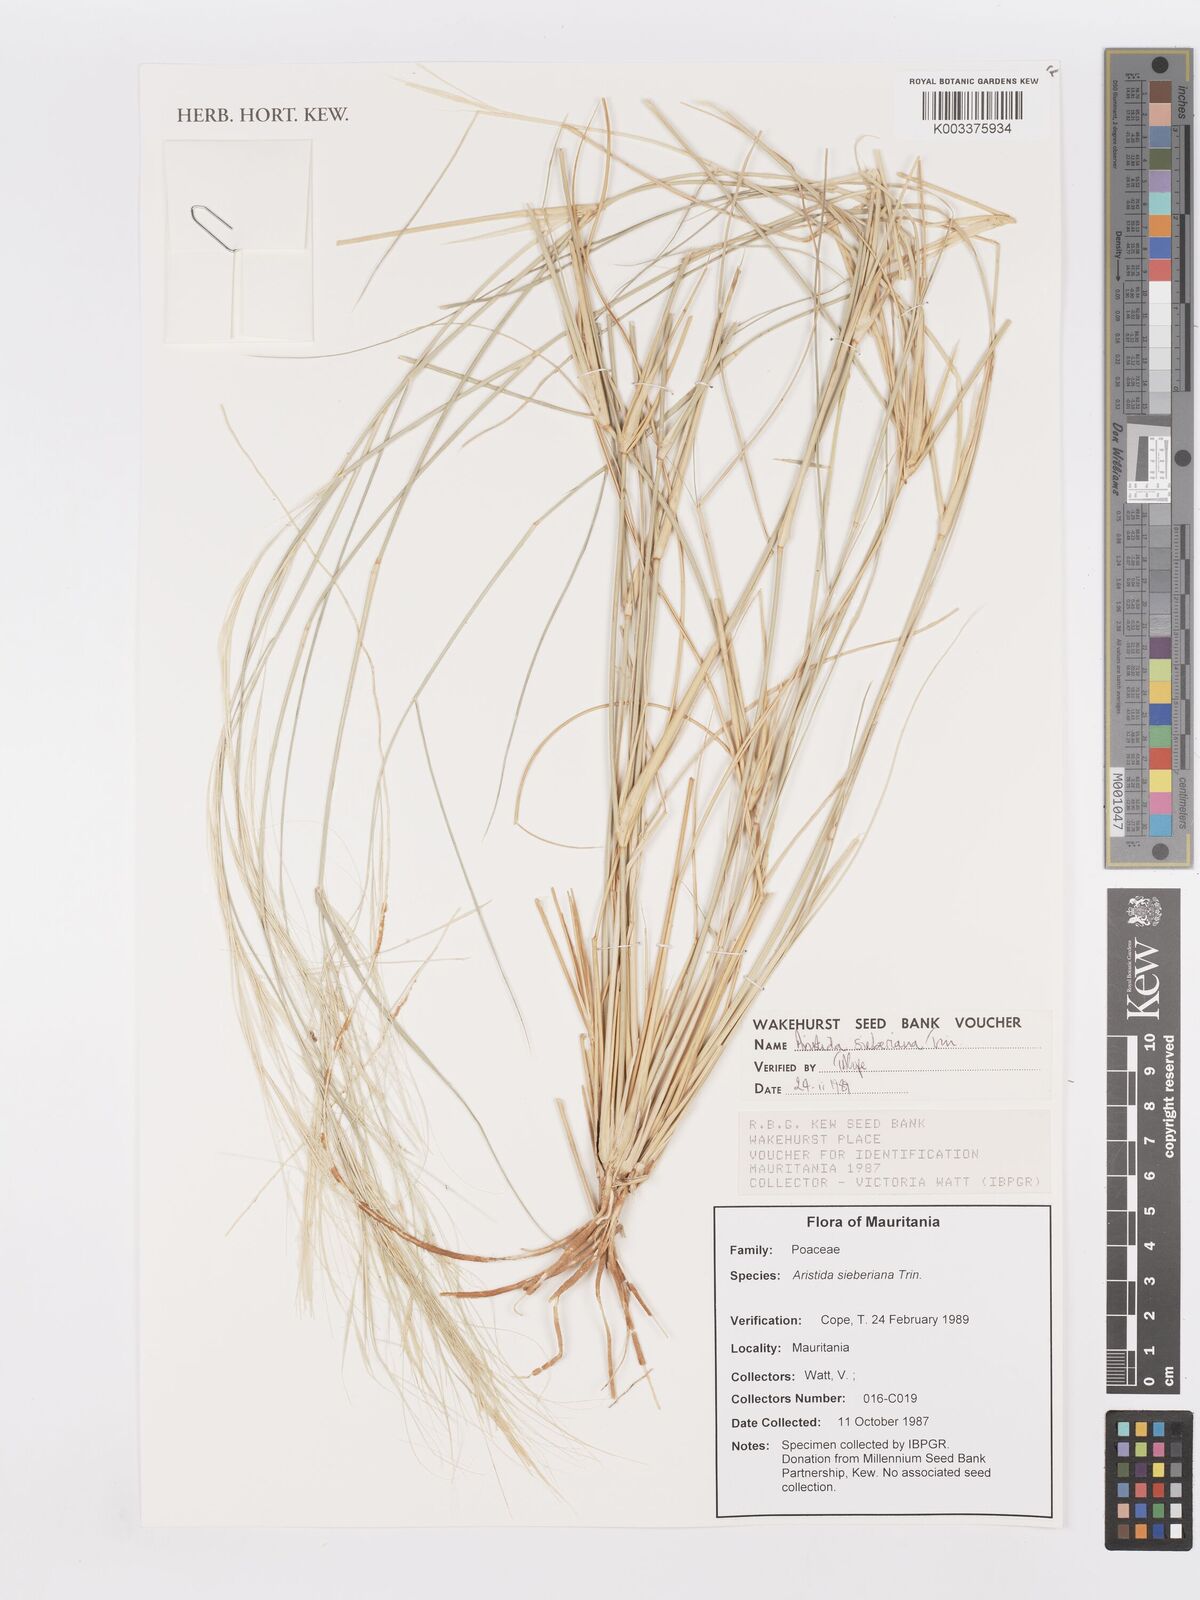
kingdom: Plantae
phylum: Tracheophyta
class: Liliopsida
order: Poales
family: Poaceae
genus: Aristida
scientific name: Aristida sieberiana
